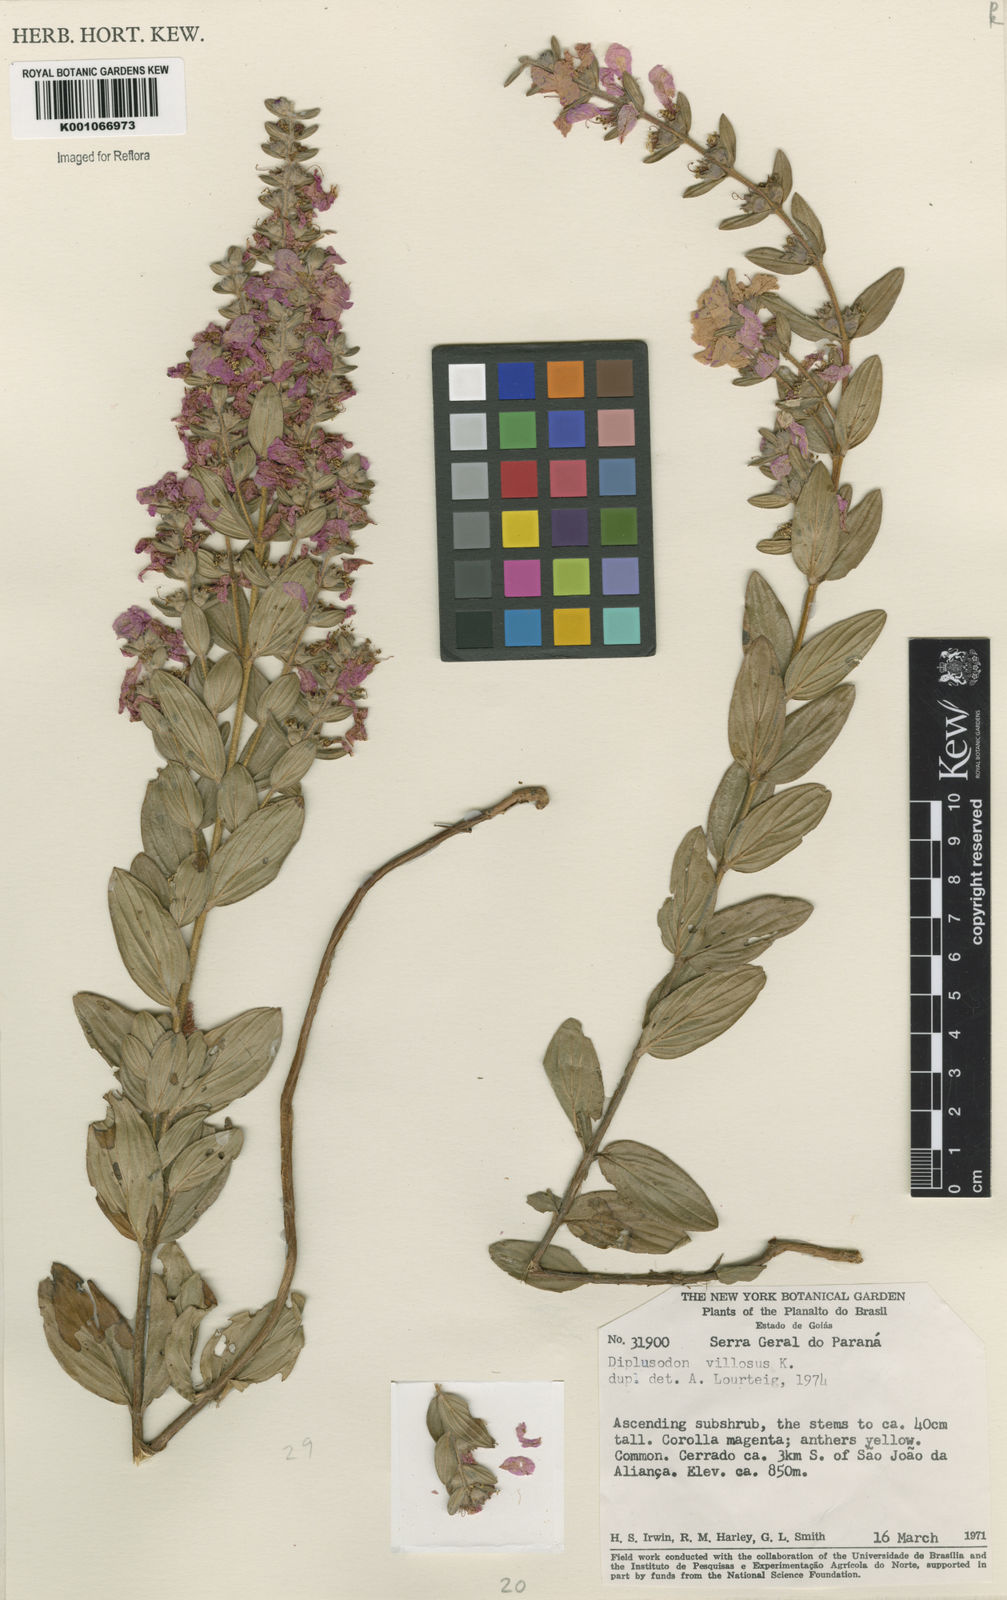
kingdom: Plantae
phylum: Tracheophyta
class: Magnoliopsida
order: Myrtales
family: Lythraceae
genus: Diplusodon
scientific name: Diplusodon villosus
